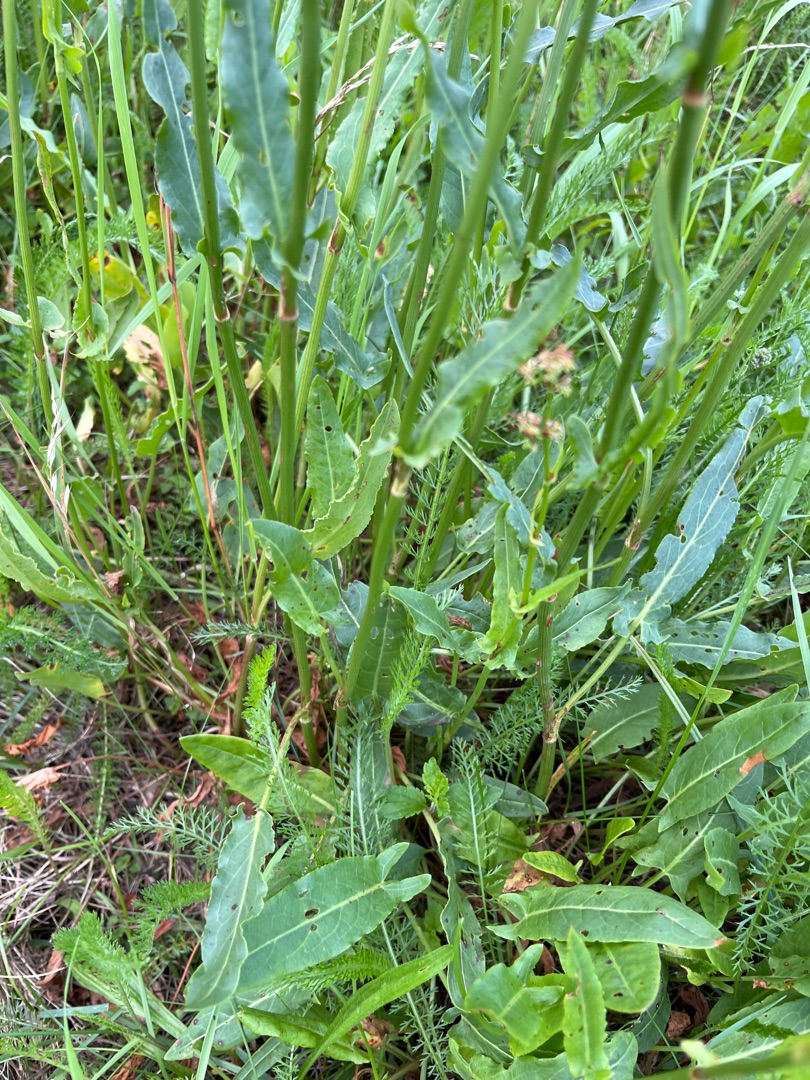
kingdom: Plantae
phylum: Tracheophyta
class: Magnoliopsida
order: Caryophyllales
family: Polygonaceae
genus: Rumex
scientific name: Rumex thyrsiflorus
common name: Dusk-syre
